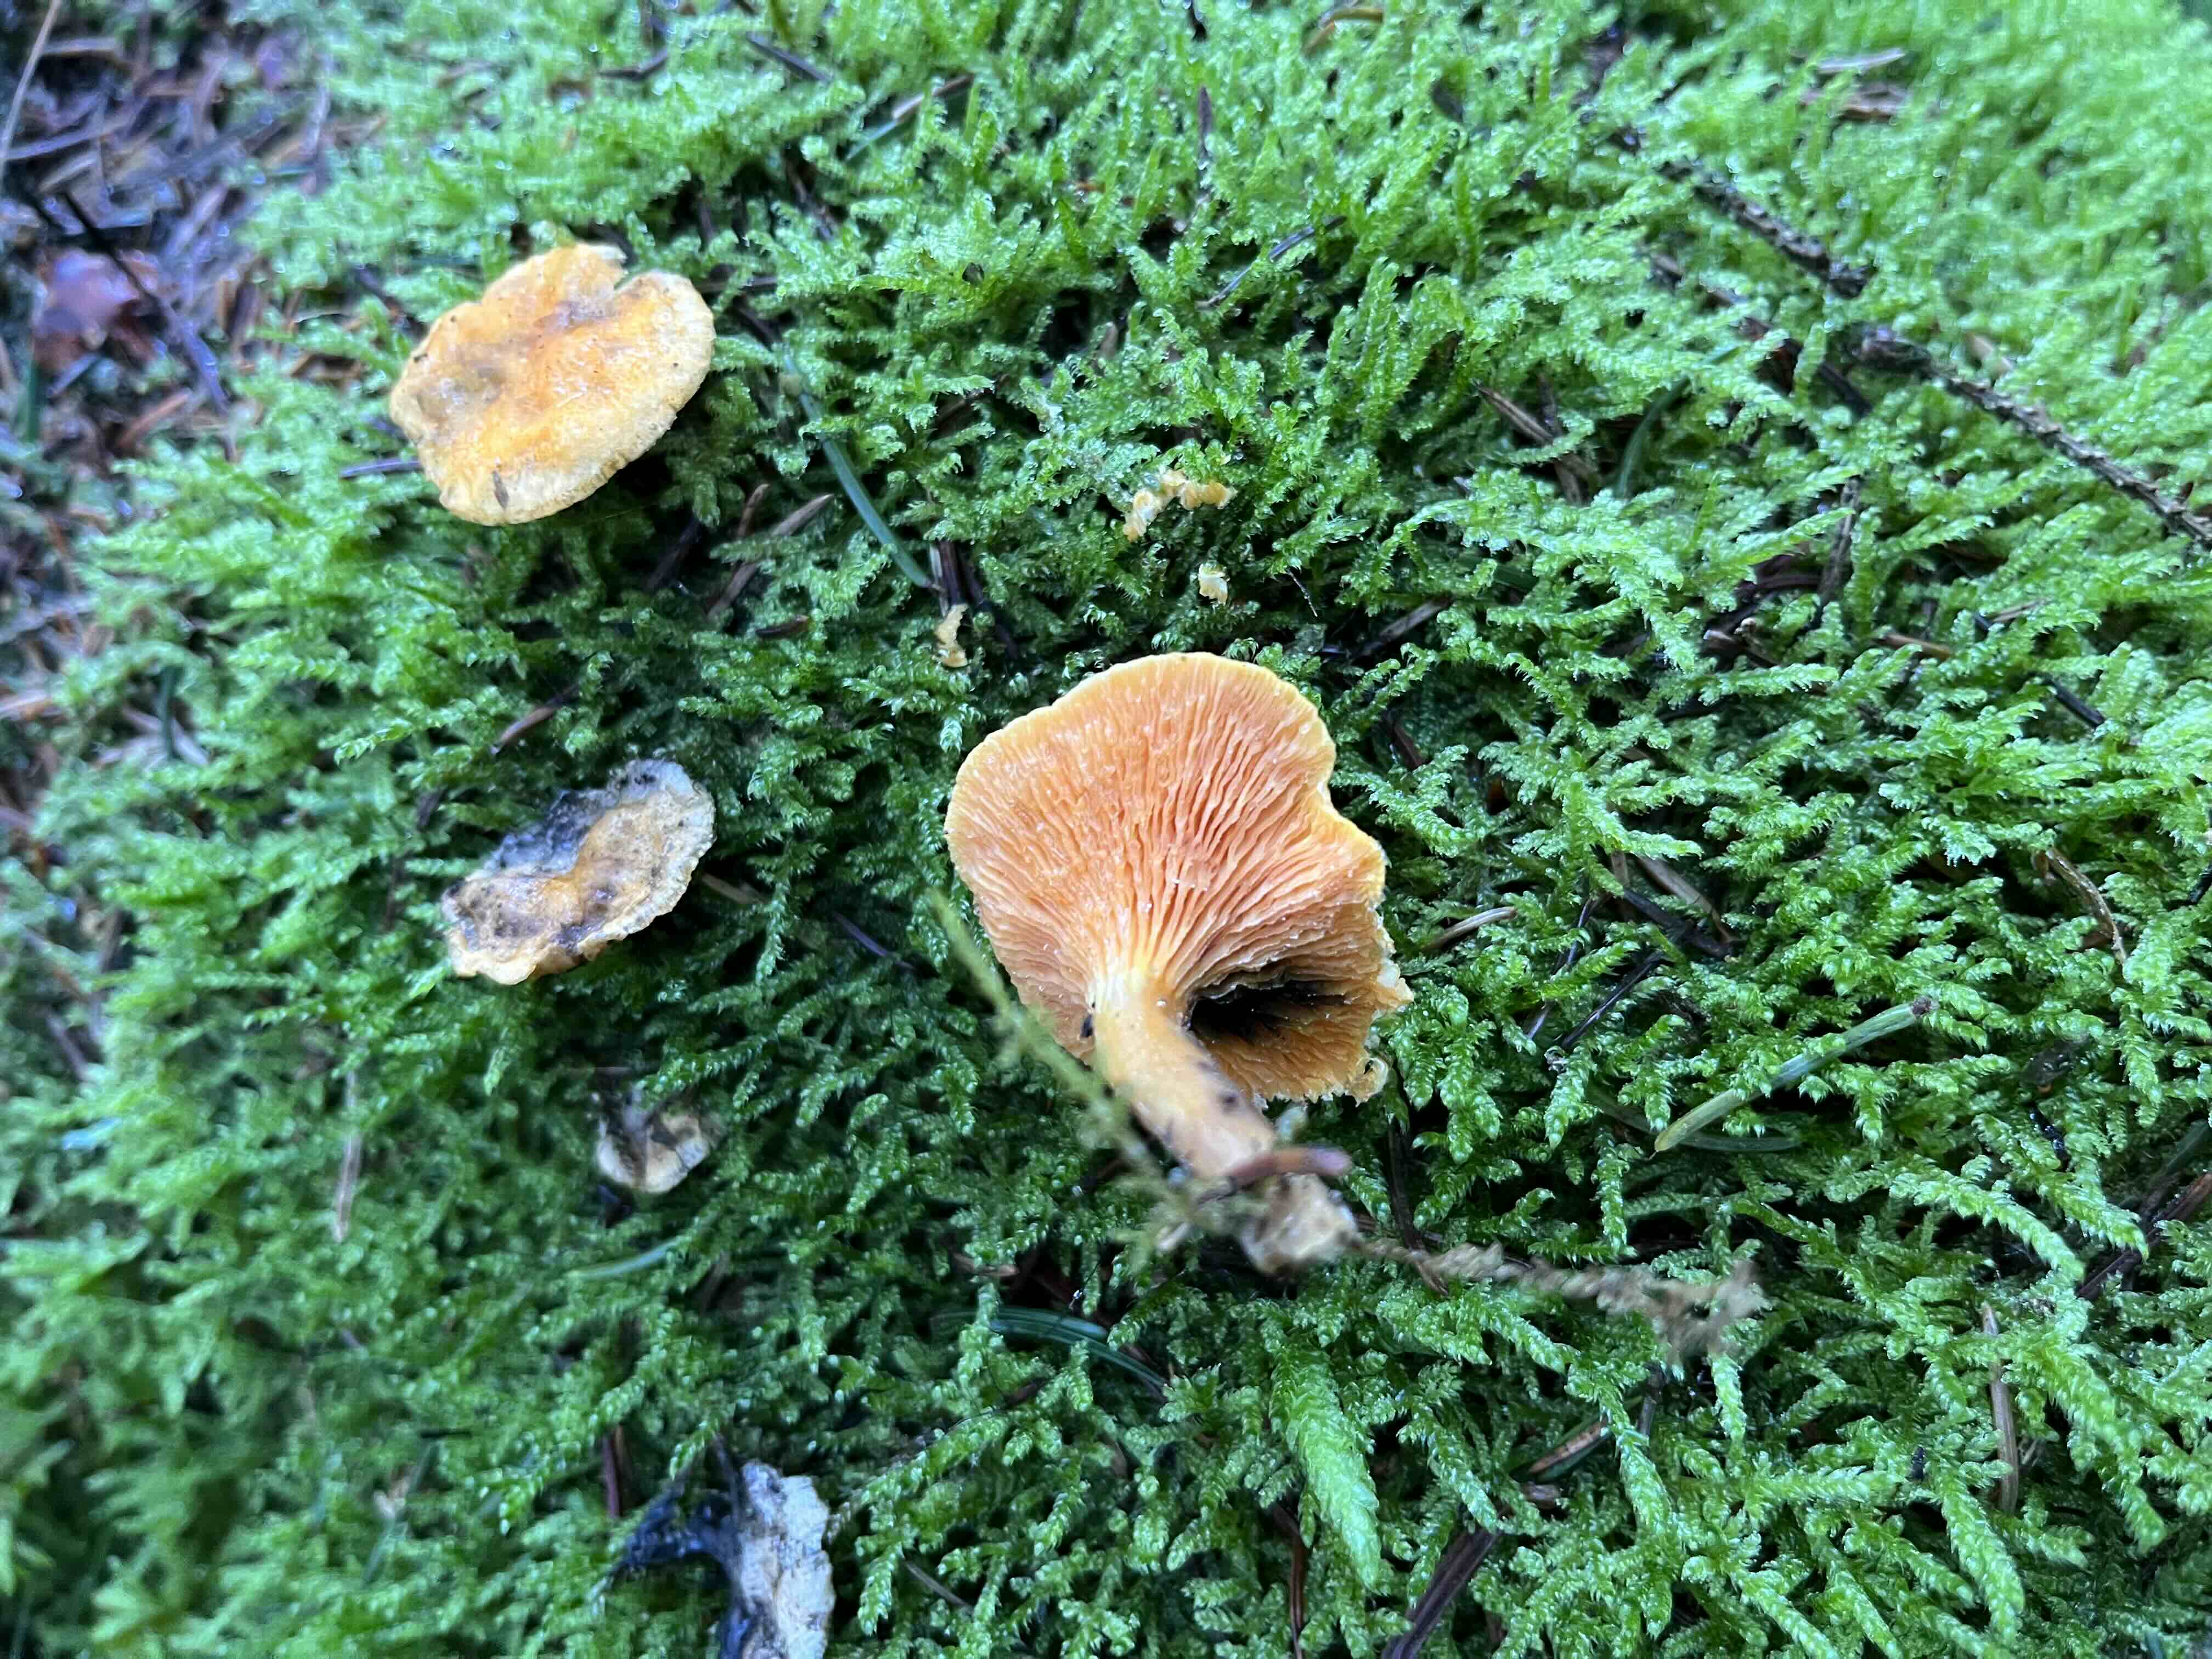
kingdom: Fungi
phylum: Basidiomycota
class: Agaricomycetes
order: Boletales
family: Hygrophoropsidaceae
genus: Hygrophoropsis
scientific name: Hygrophoropsis aurantiaca
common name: almindelig orangekantarel
